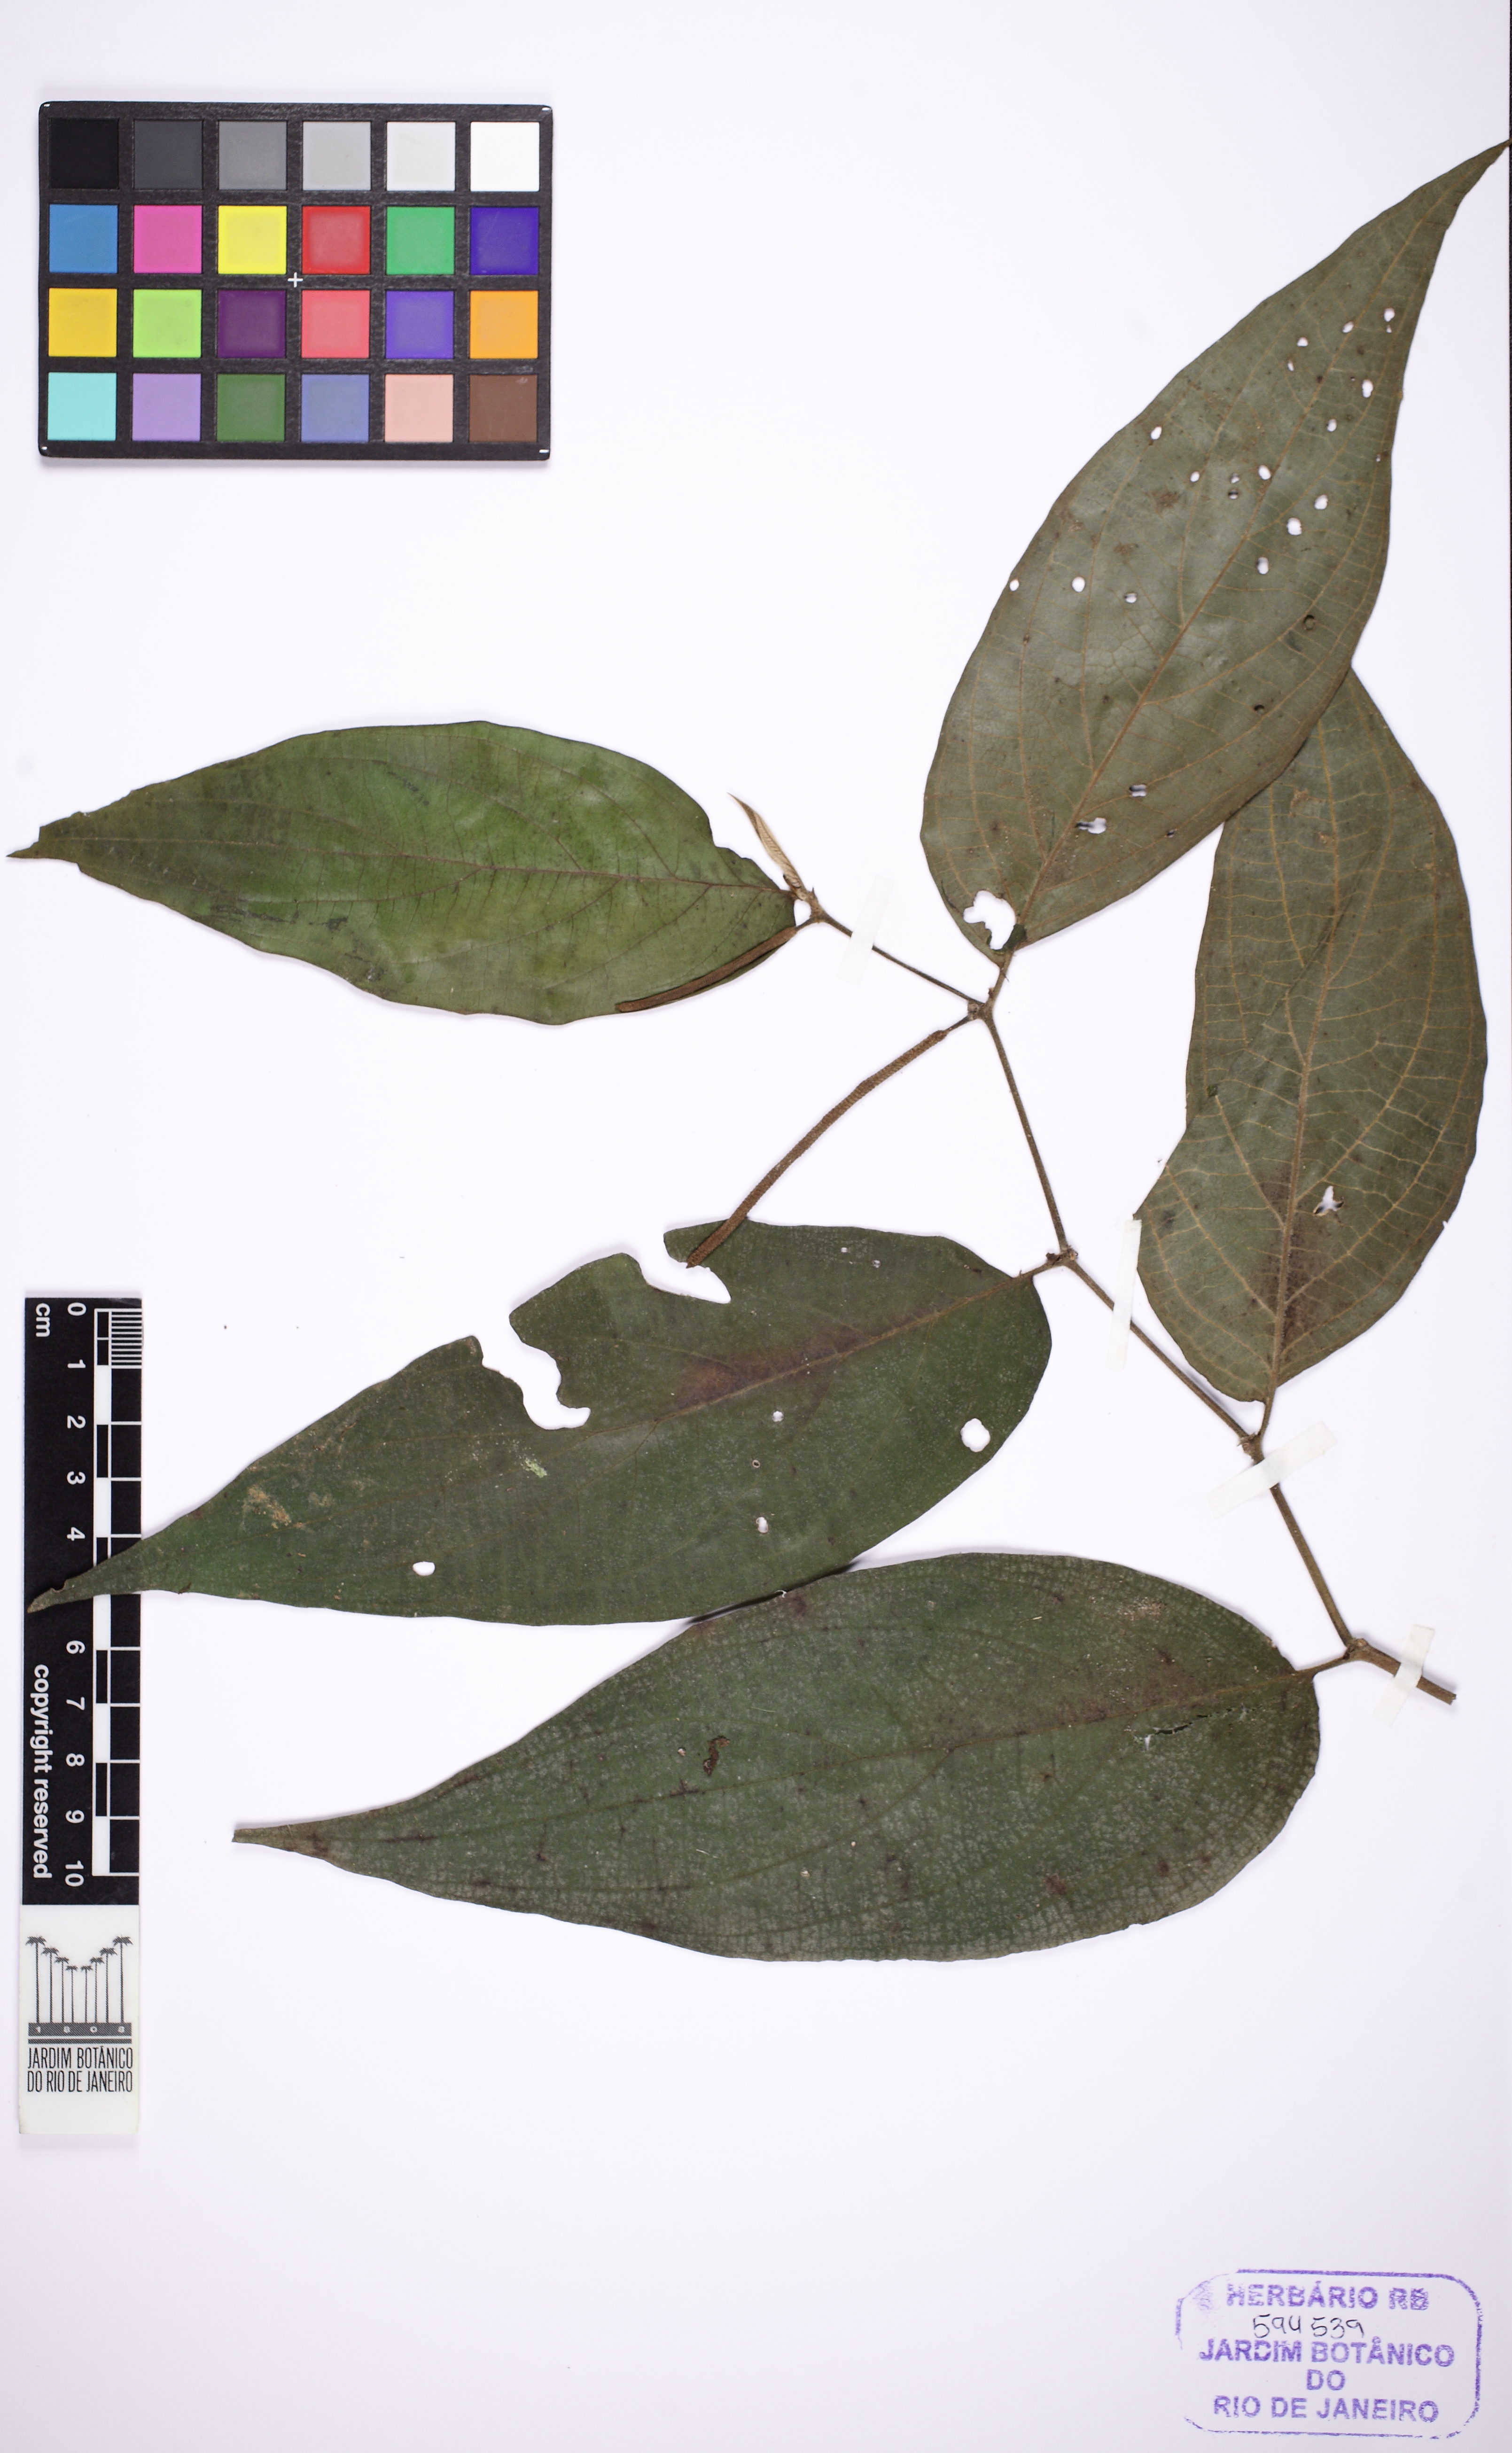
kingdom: Plantae
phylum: Tracheophyta
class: Magnoliopsida
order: Piperales
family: Piperaceae
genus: Piper
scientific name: Piper mollicomum
